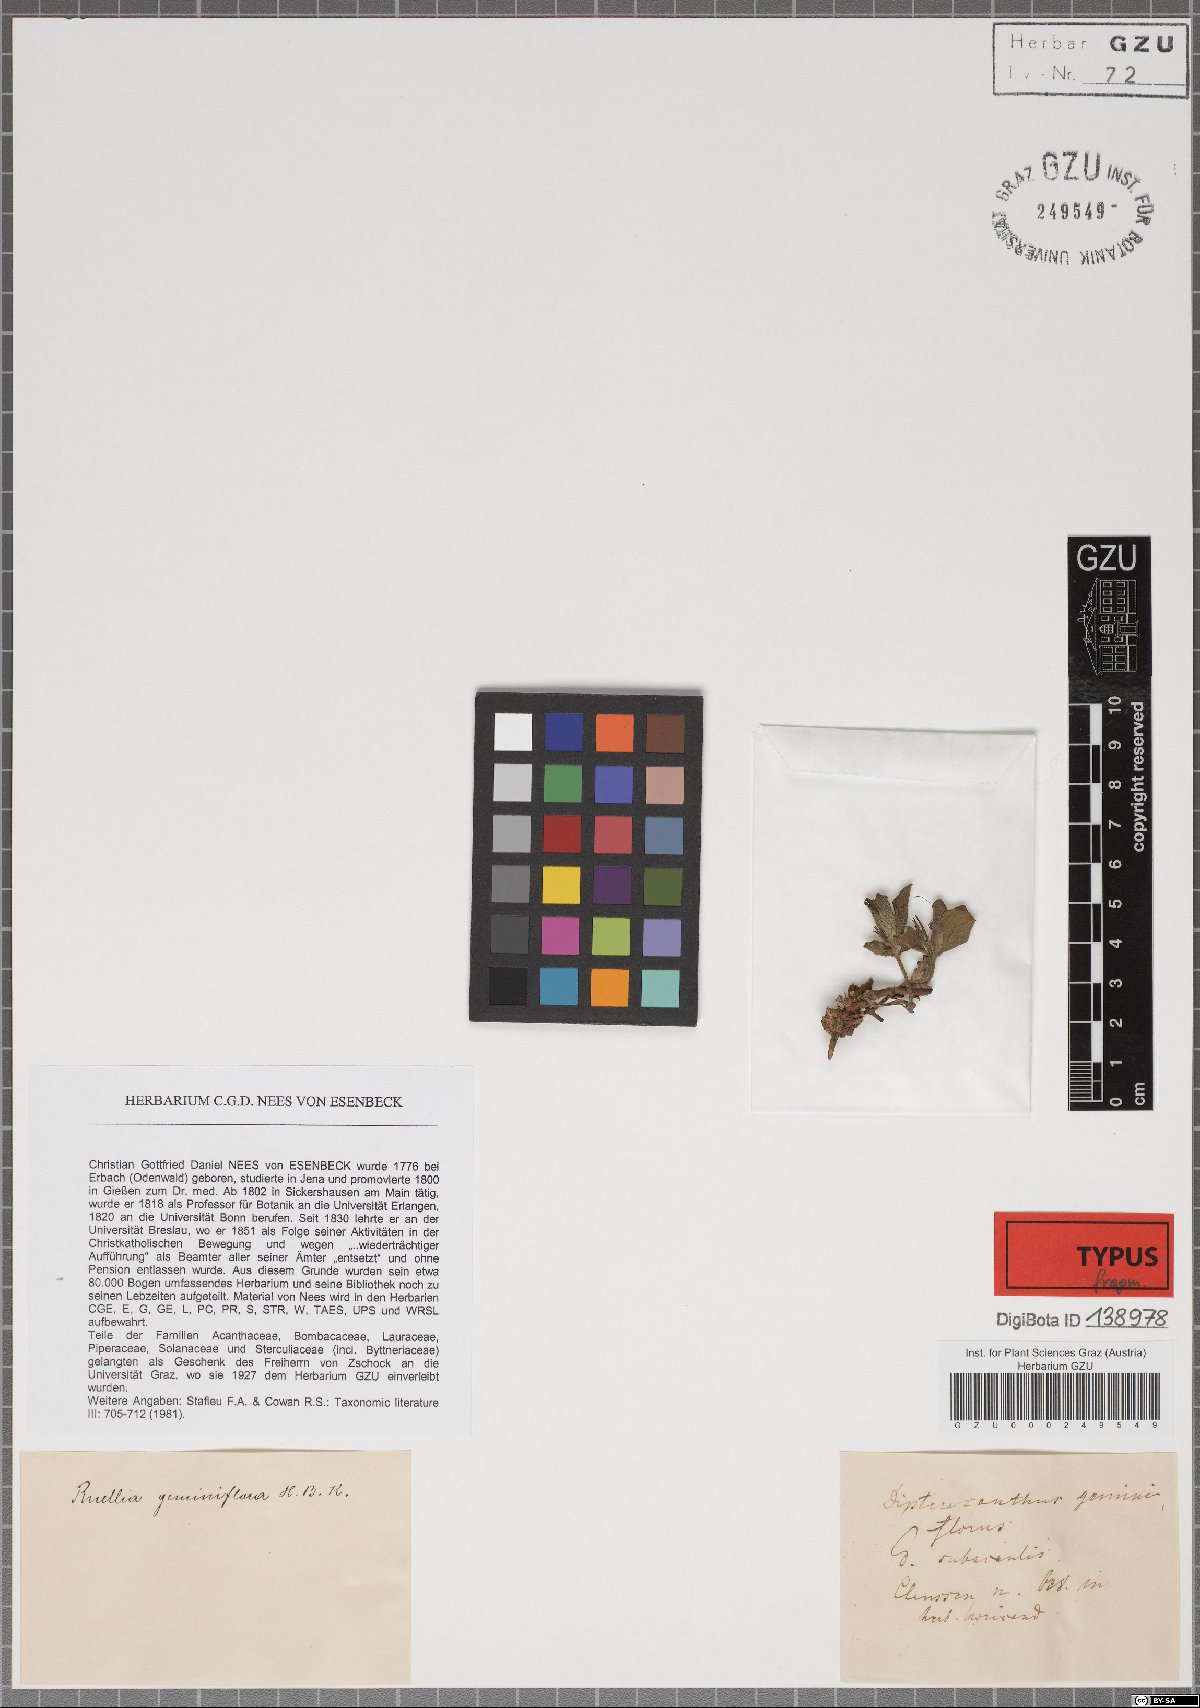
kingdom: Plantae
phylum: Tracheophyta
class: Magnoliopsida
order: Lamiales
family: Acanthaceae
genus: Ruellia
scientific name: Ruellia geminiflora
